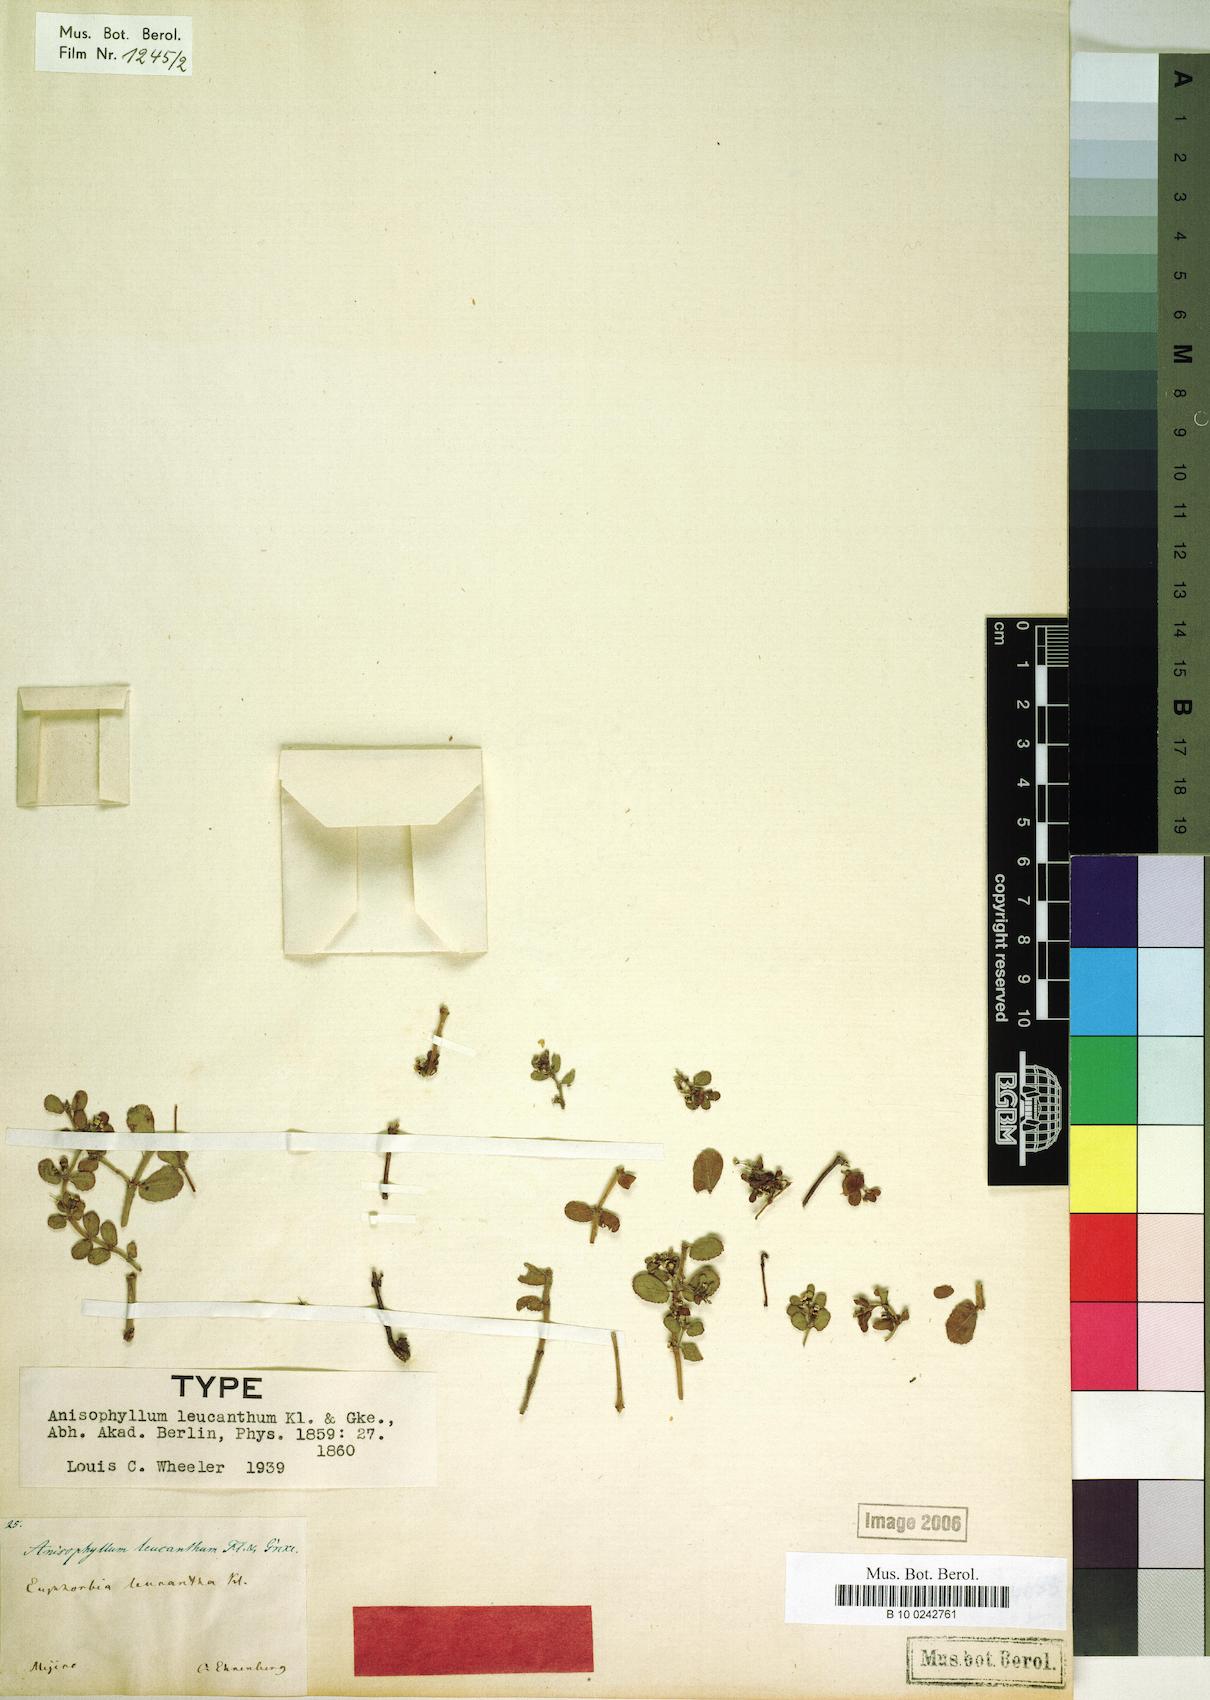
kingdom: Plantae
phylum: Tracheophyta
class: Magnoliopsida
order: Malpighiales
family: Euphorbiaceae
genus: Euphorbia
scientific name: Euphorbia leucantha
